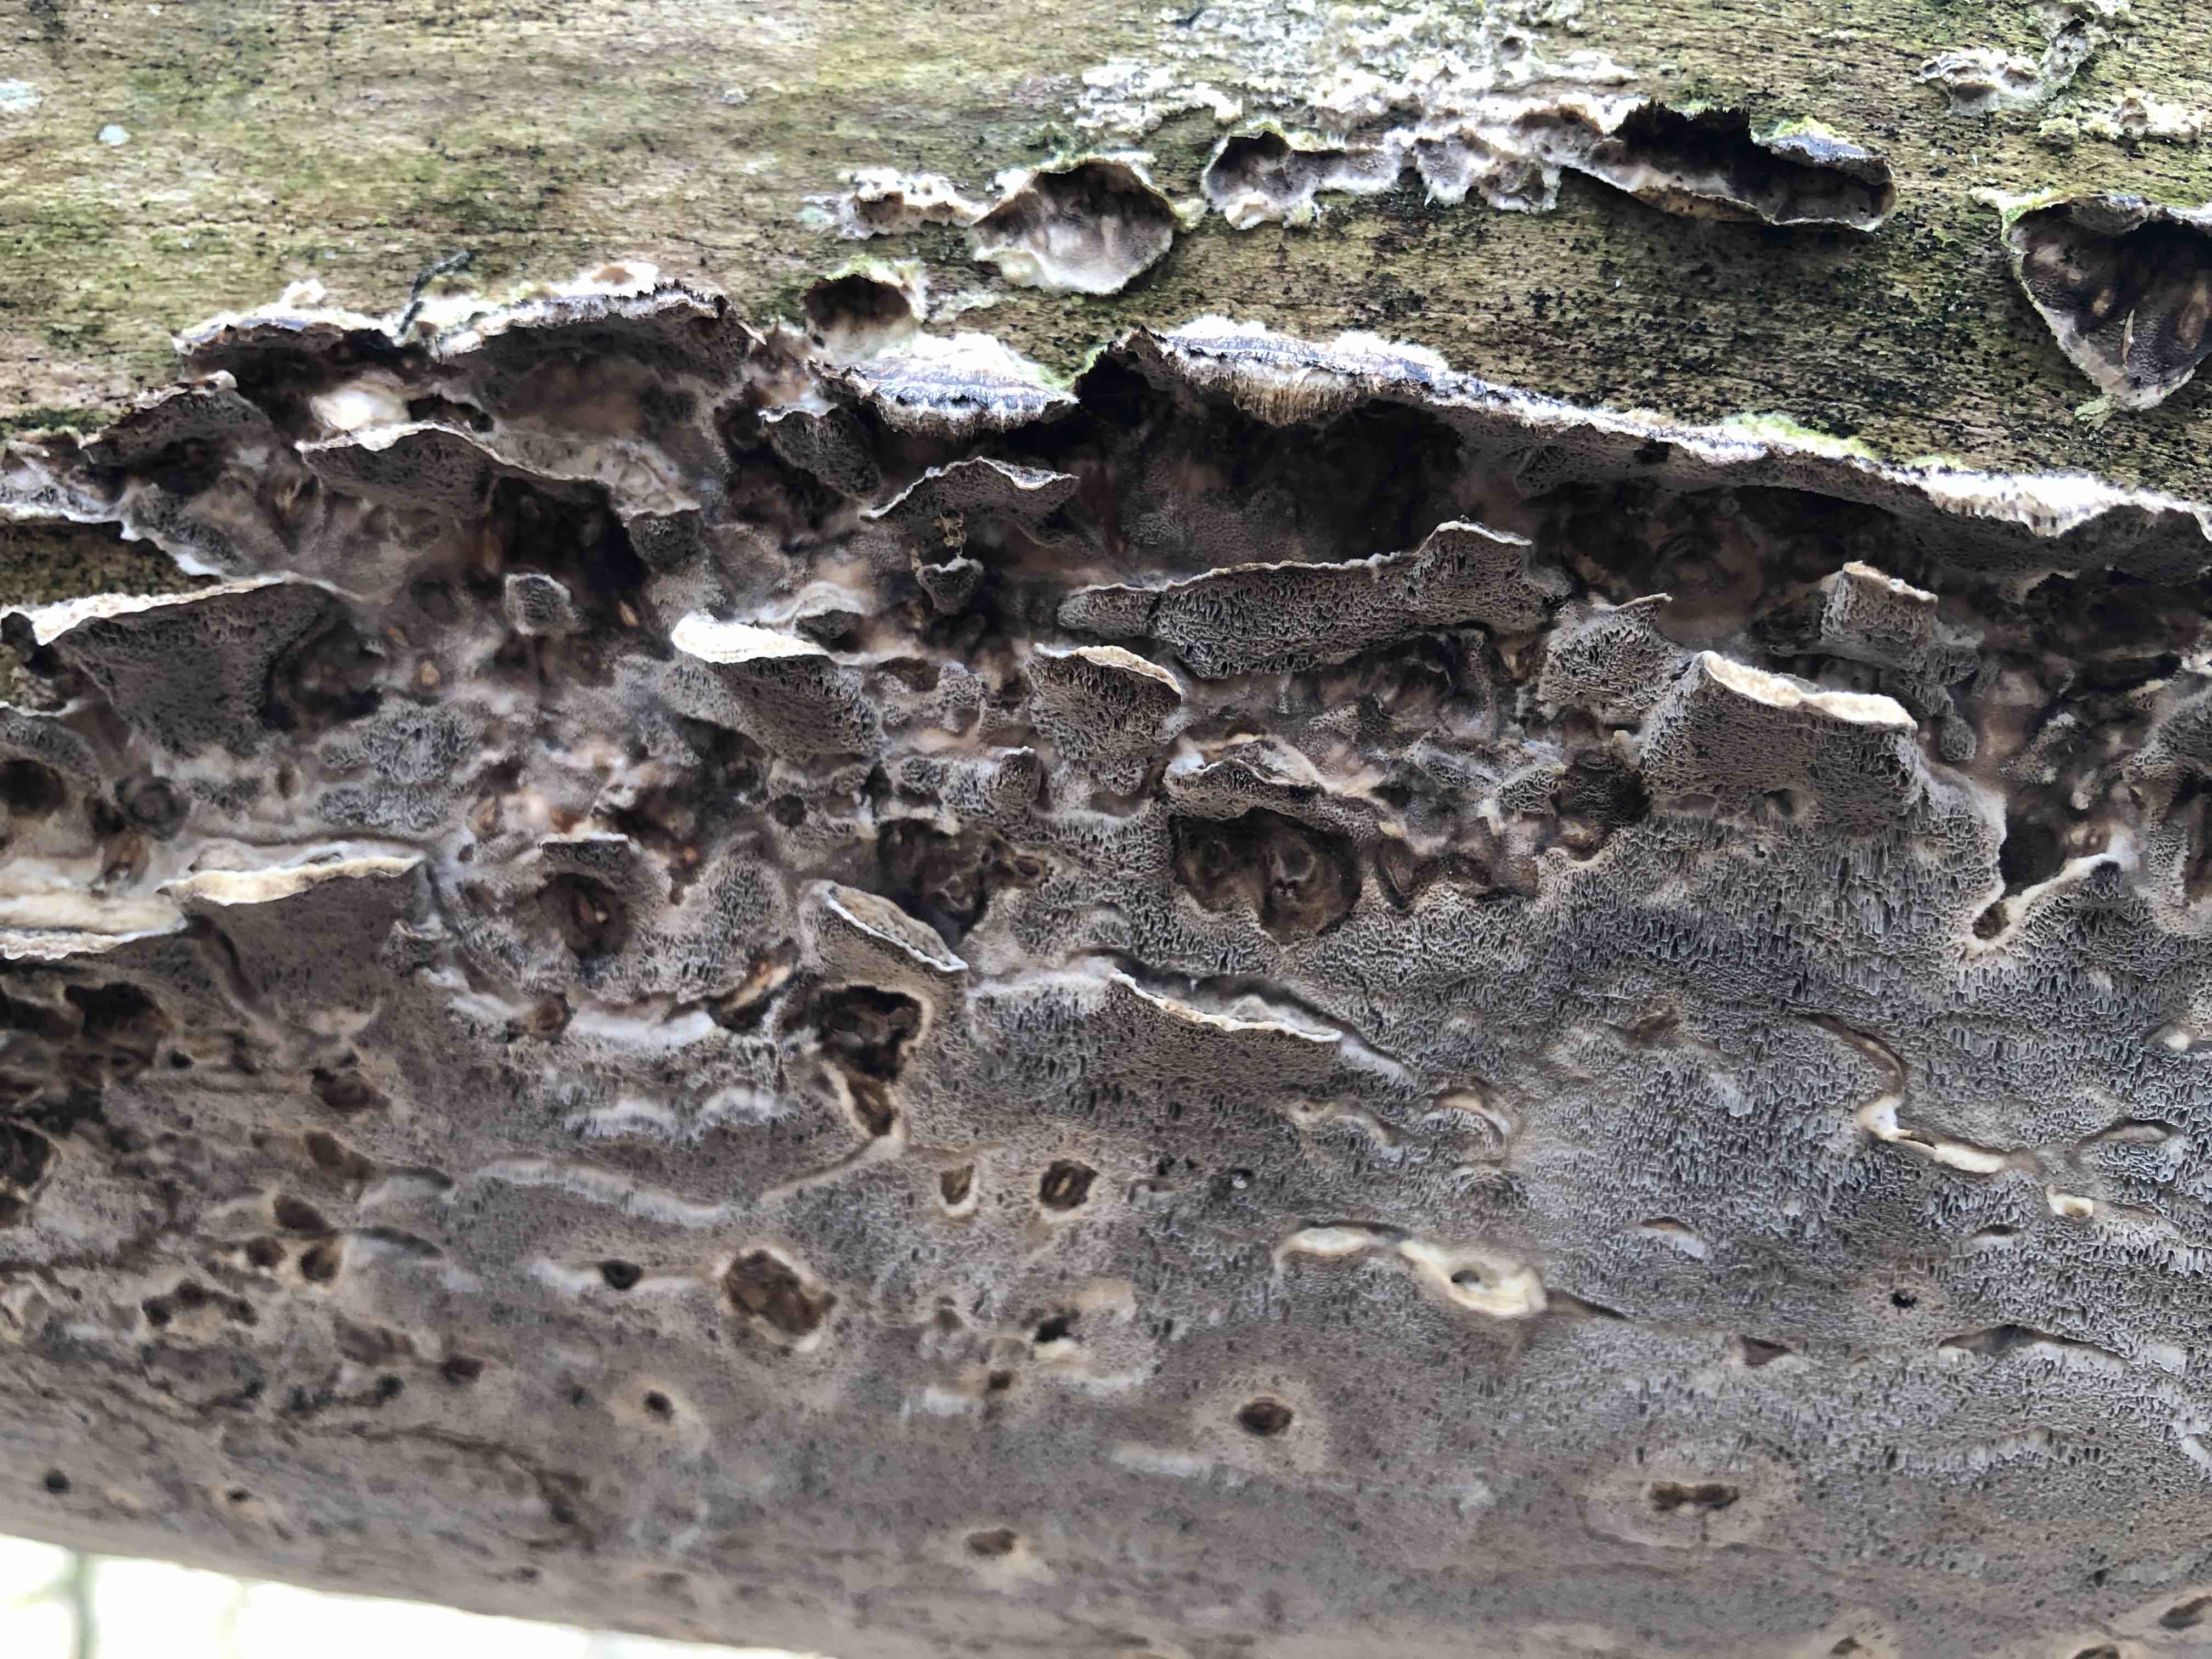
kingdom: Fungi
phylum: Basidiomycota
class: Agaricomycetes
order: Polyporales
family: Phanerochaetaceae
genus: Bjerkandera
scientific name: Bjerkandera adusta
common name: sveden sodporesvamp
